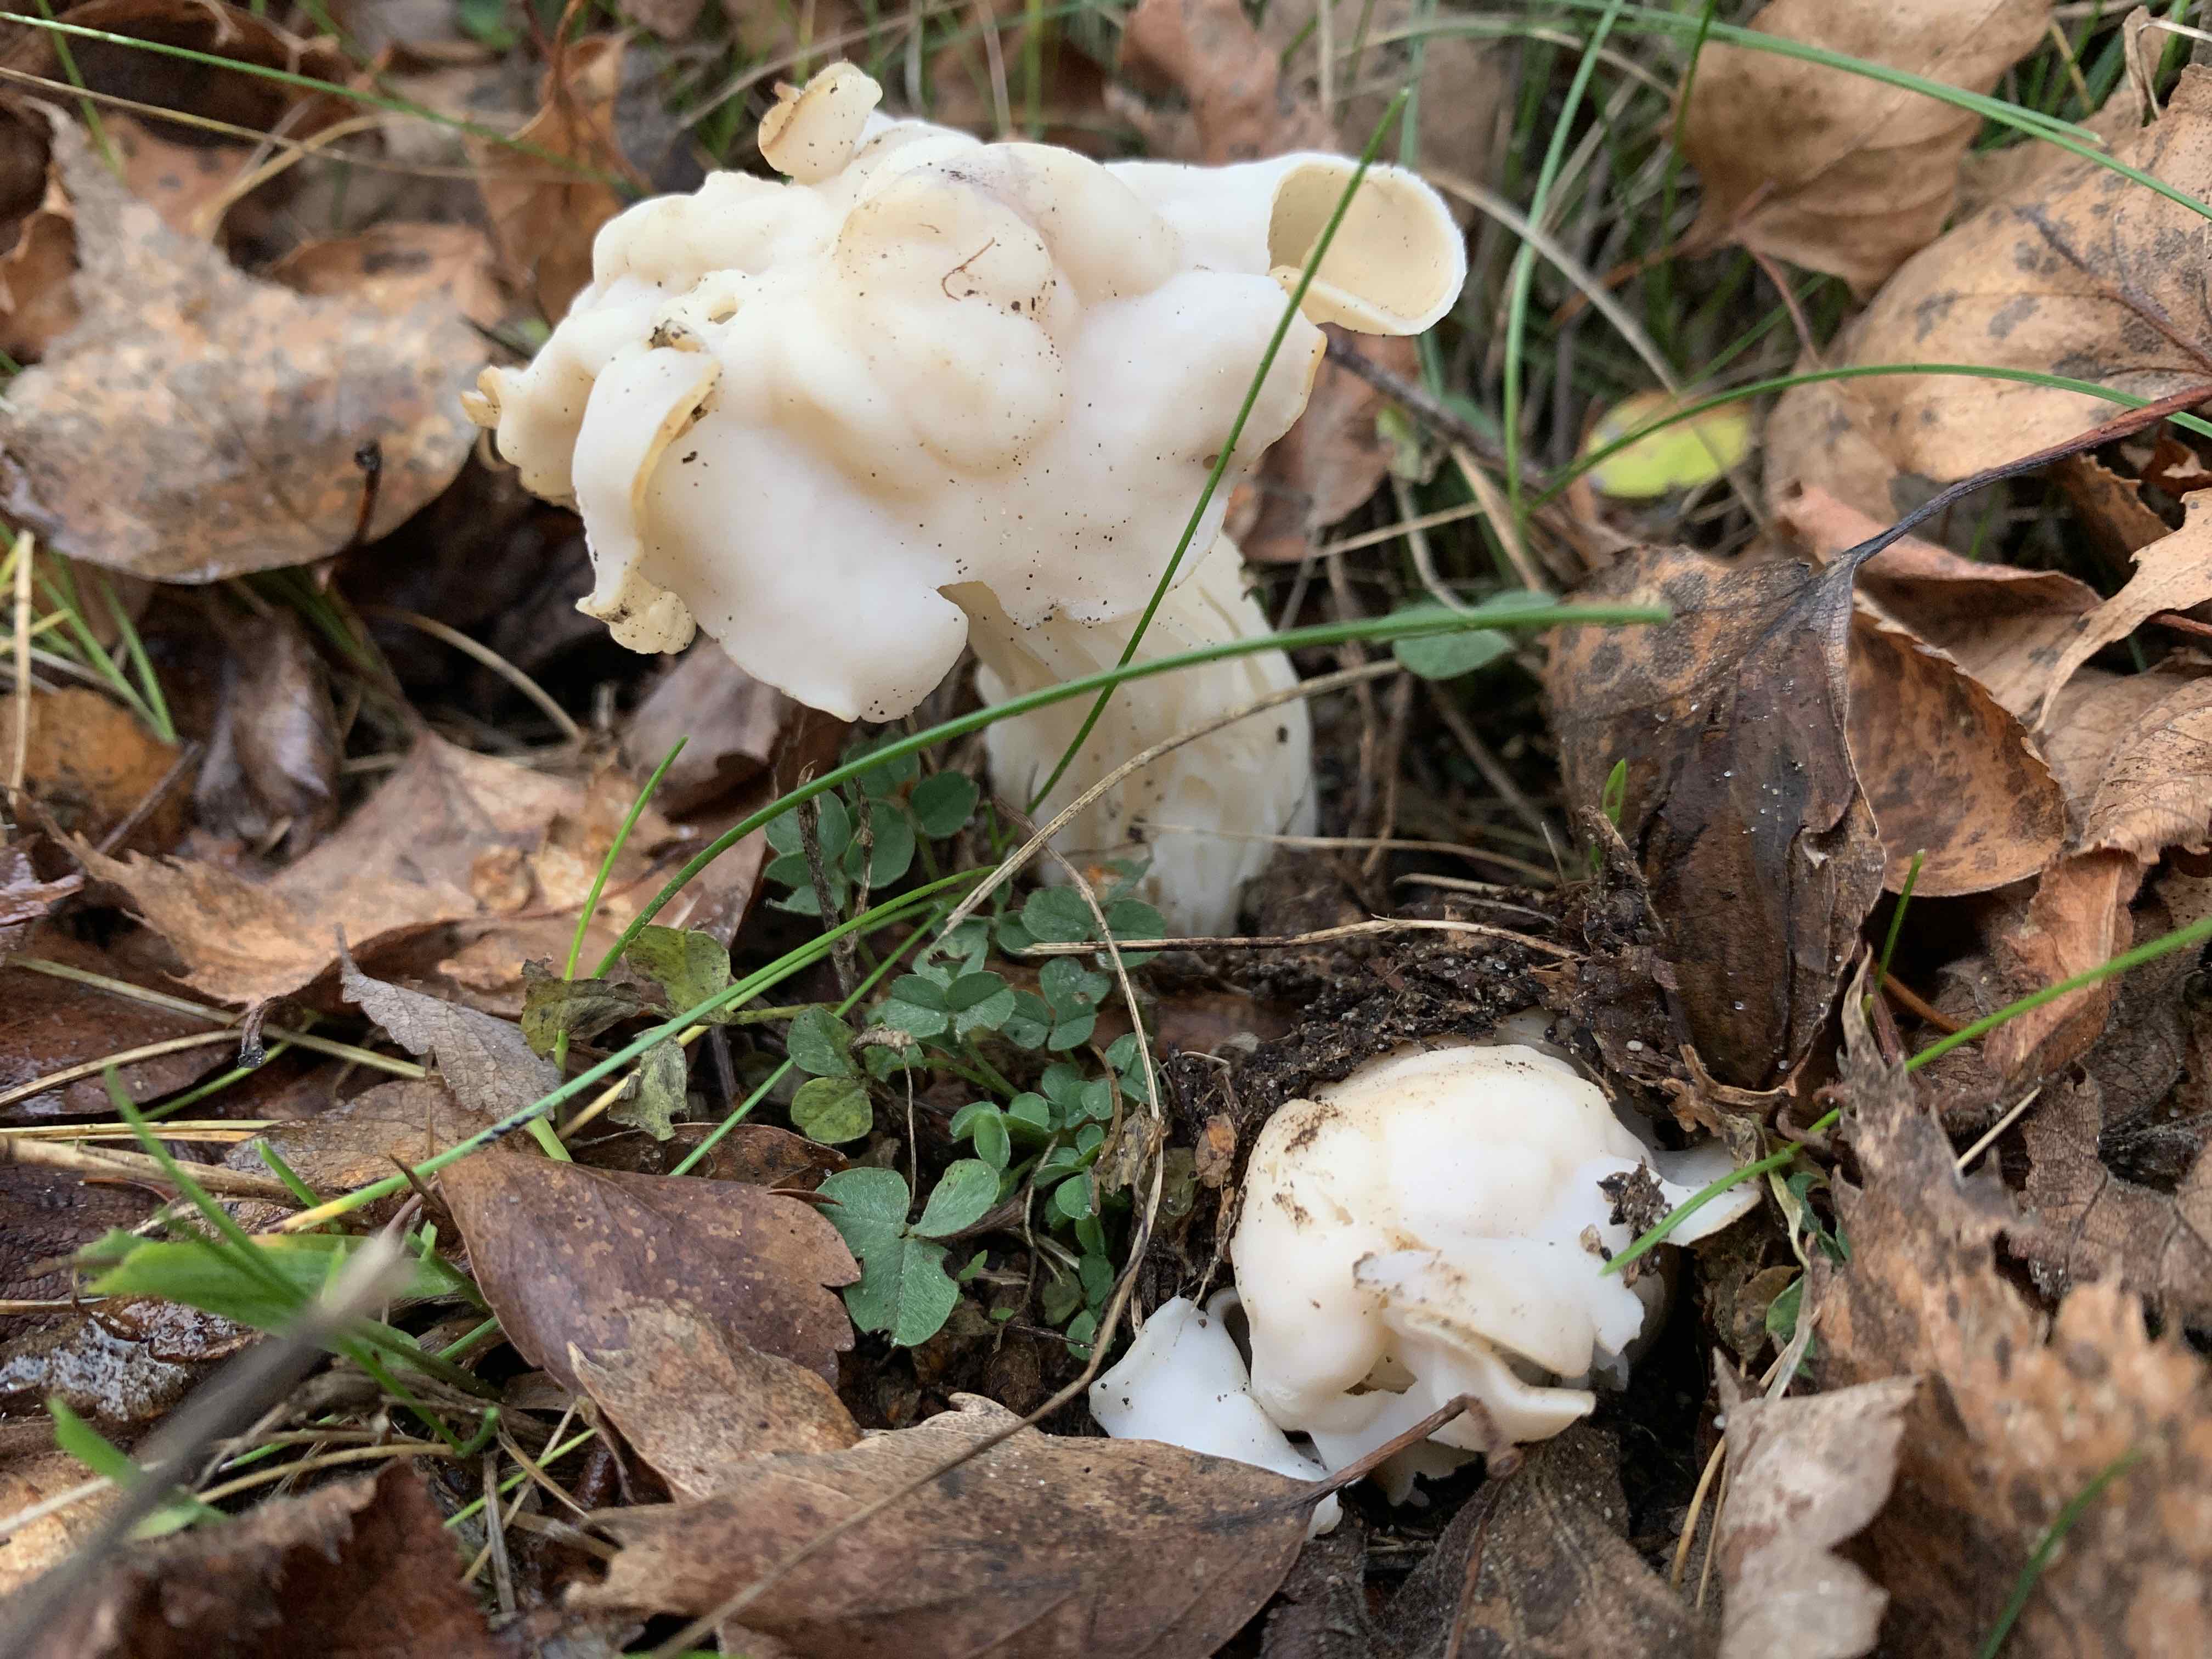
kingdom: Fungi
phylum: Ascomycota
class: Pezizomycetes
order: Pezizales
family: Helvellaceae
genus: Helvella
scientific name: Helvella crispa
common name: kruset foldhat
